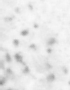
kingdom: Animalia
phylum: Chordata
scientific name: Chordata
